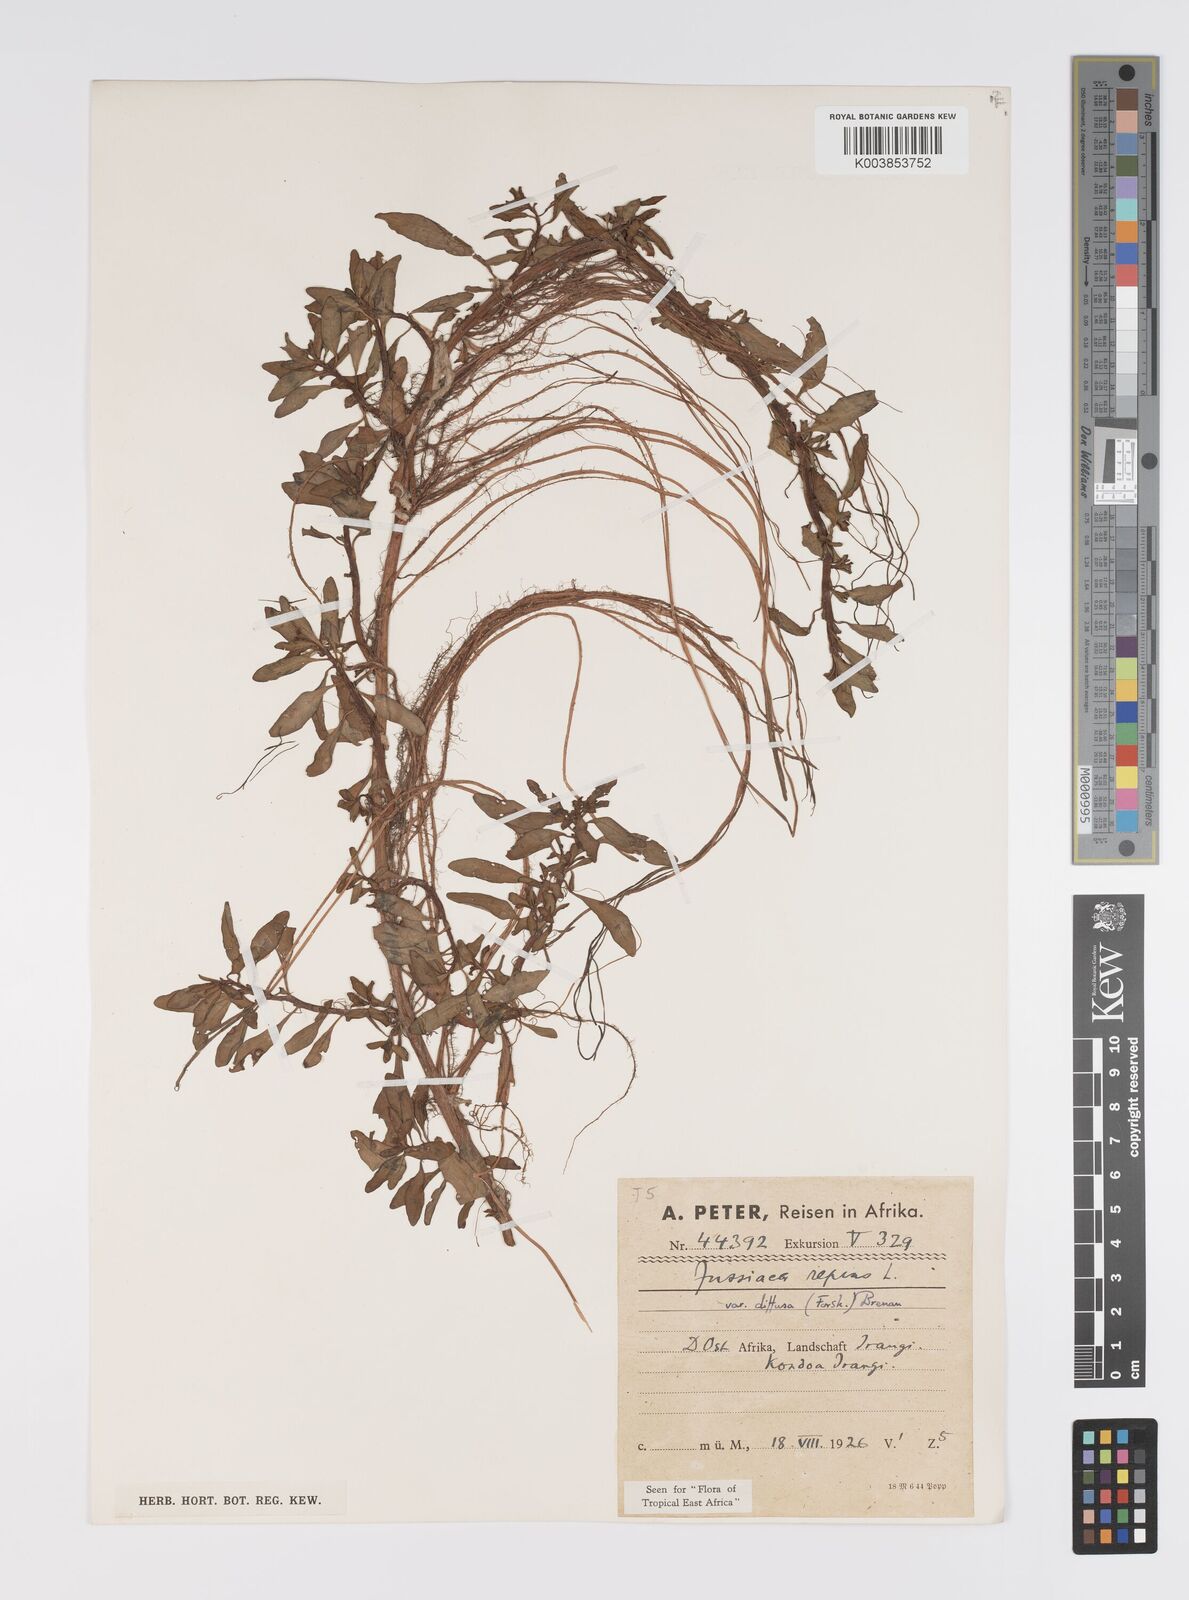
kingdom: Plantae
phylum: Tracheophyta
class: Magnoliopsida
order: Myrtales
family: Onagraceae
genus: Ludwigia
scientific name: Ludwigia adscendens
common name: Creeping water primrose
